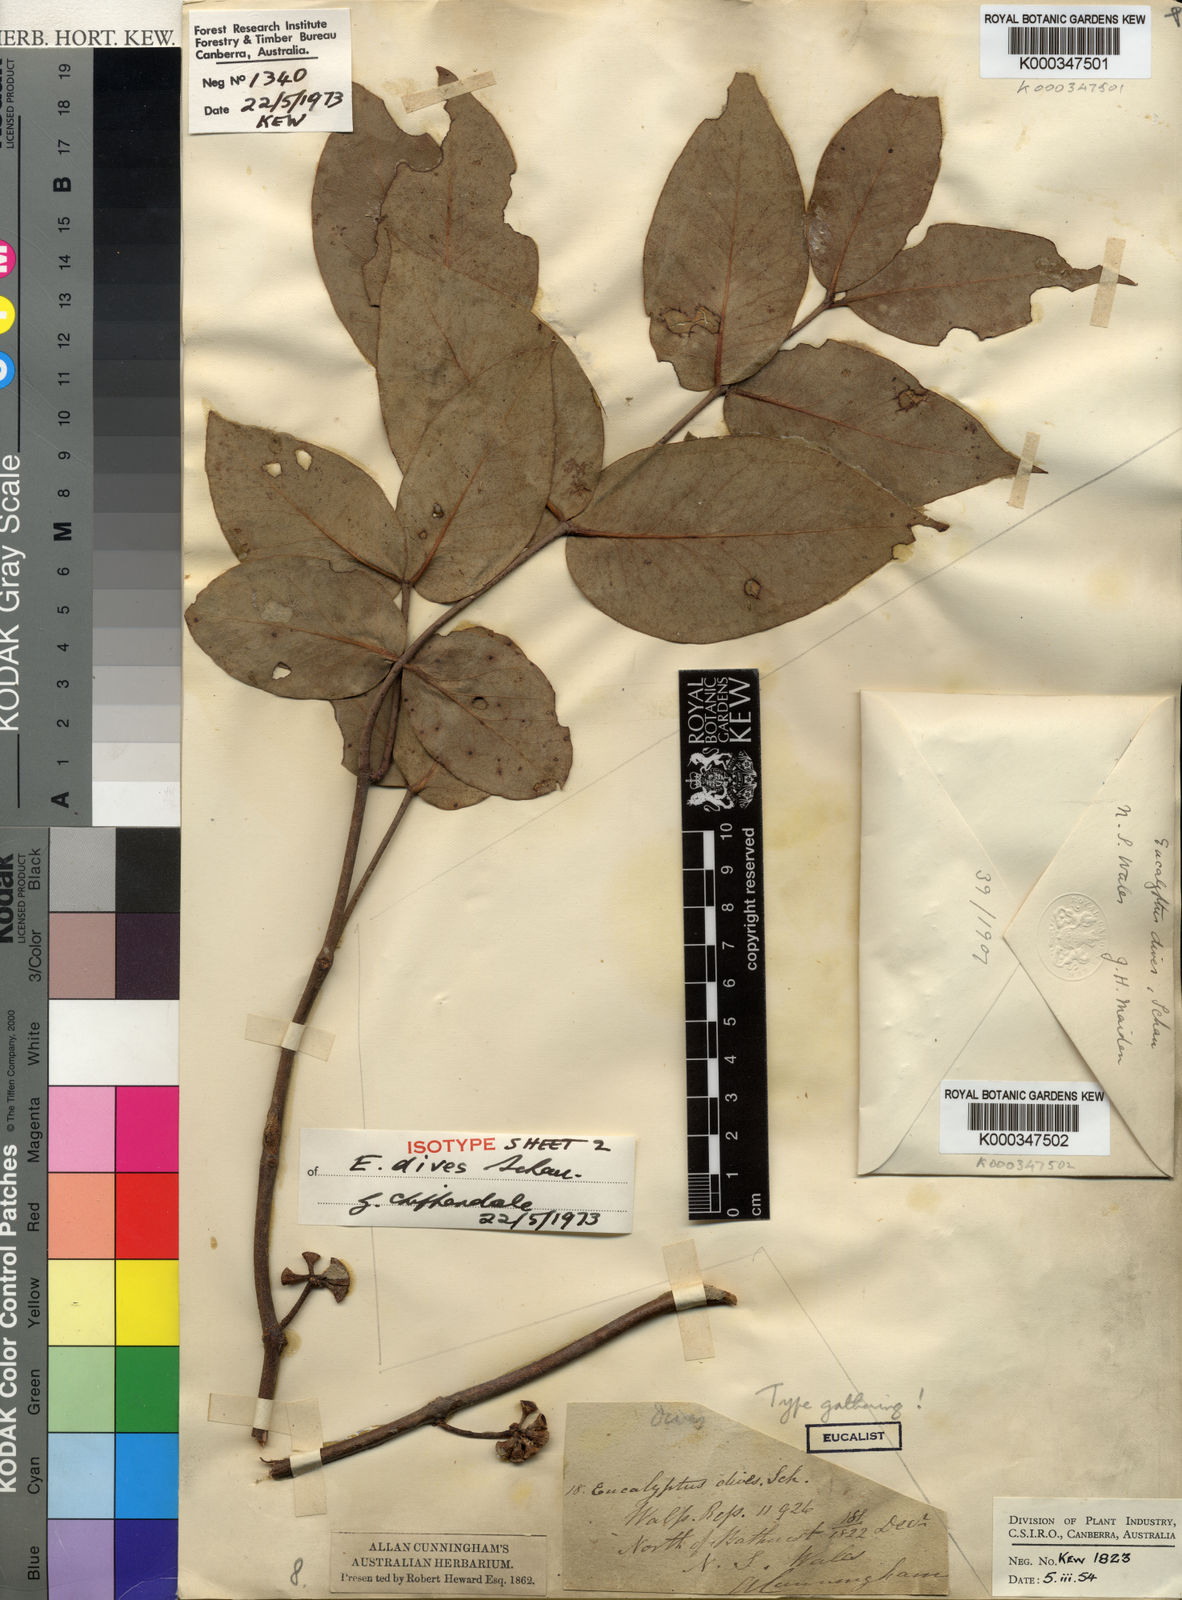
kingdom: Plantae
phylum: Tracheophyta
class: Magnoliopsida
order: Myrtales
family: Myrtaceae
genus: Eucalyptus
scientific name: Eucalyptus dives
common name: Blue peppermint
